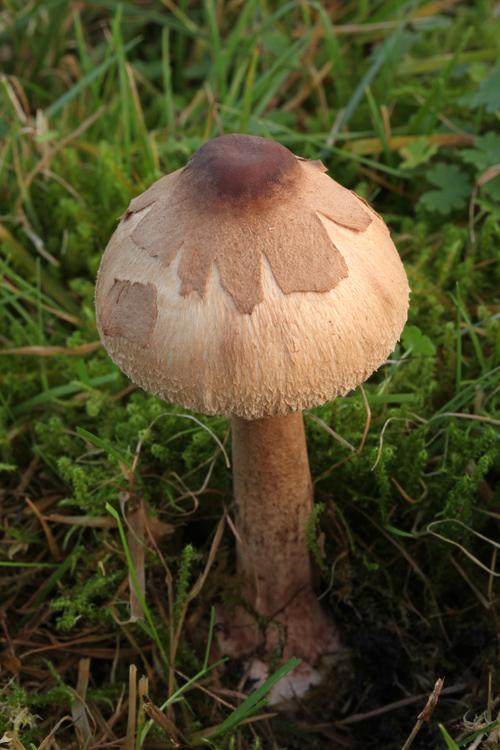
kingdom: Fungi
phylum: Basidiomycota
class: Agaricomycetes
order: Agaricales
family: Agaricaceae
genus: Macrolepiota
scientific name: Macrolepiota mastoidea
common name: puklet kæmpeparasolhat
